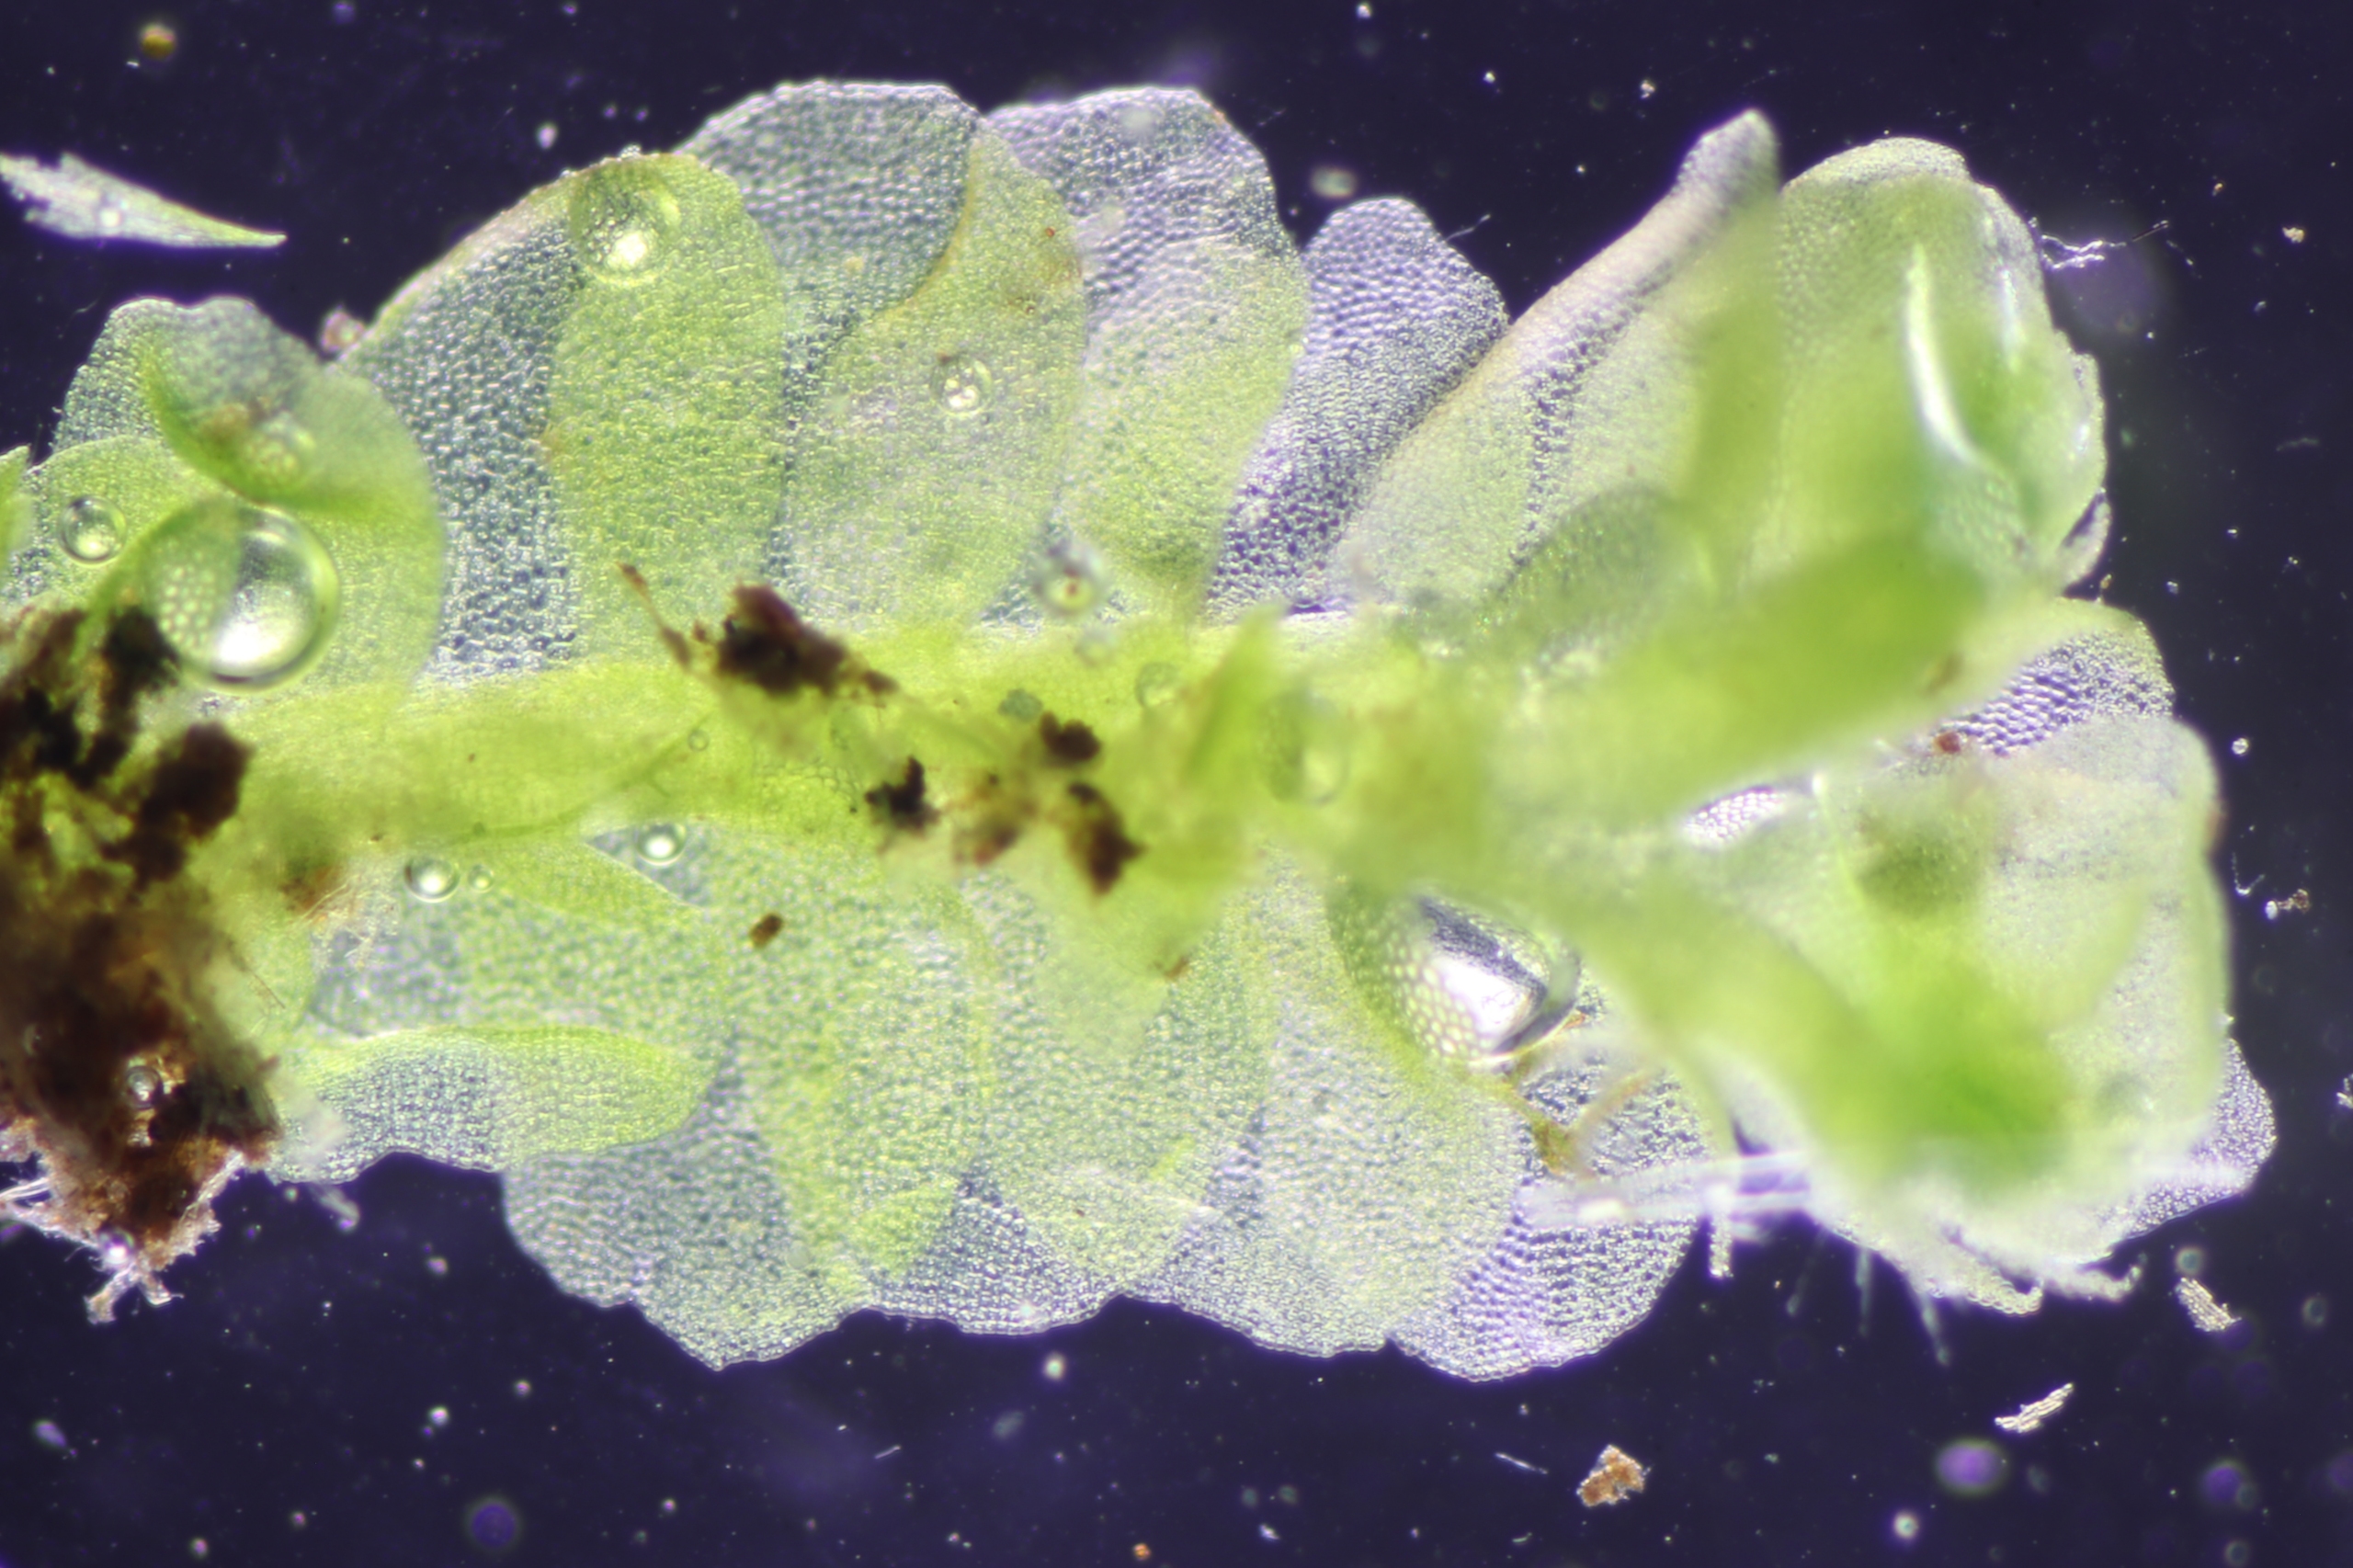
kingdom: Plantae
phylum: Marchantiophyta
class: Jungermanniopsida
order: Jungermanniales
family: Lophocoleaceae
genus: Chiloscyphus
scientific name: Chiloscyphus pallescens
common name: Bleg læbemund
